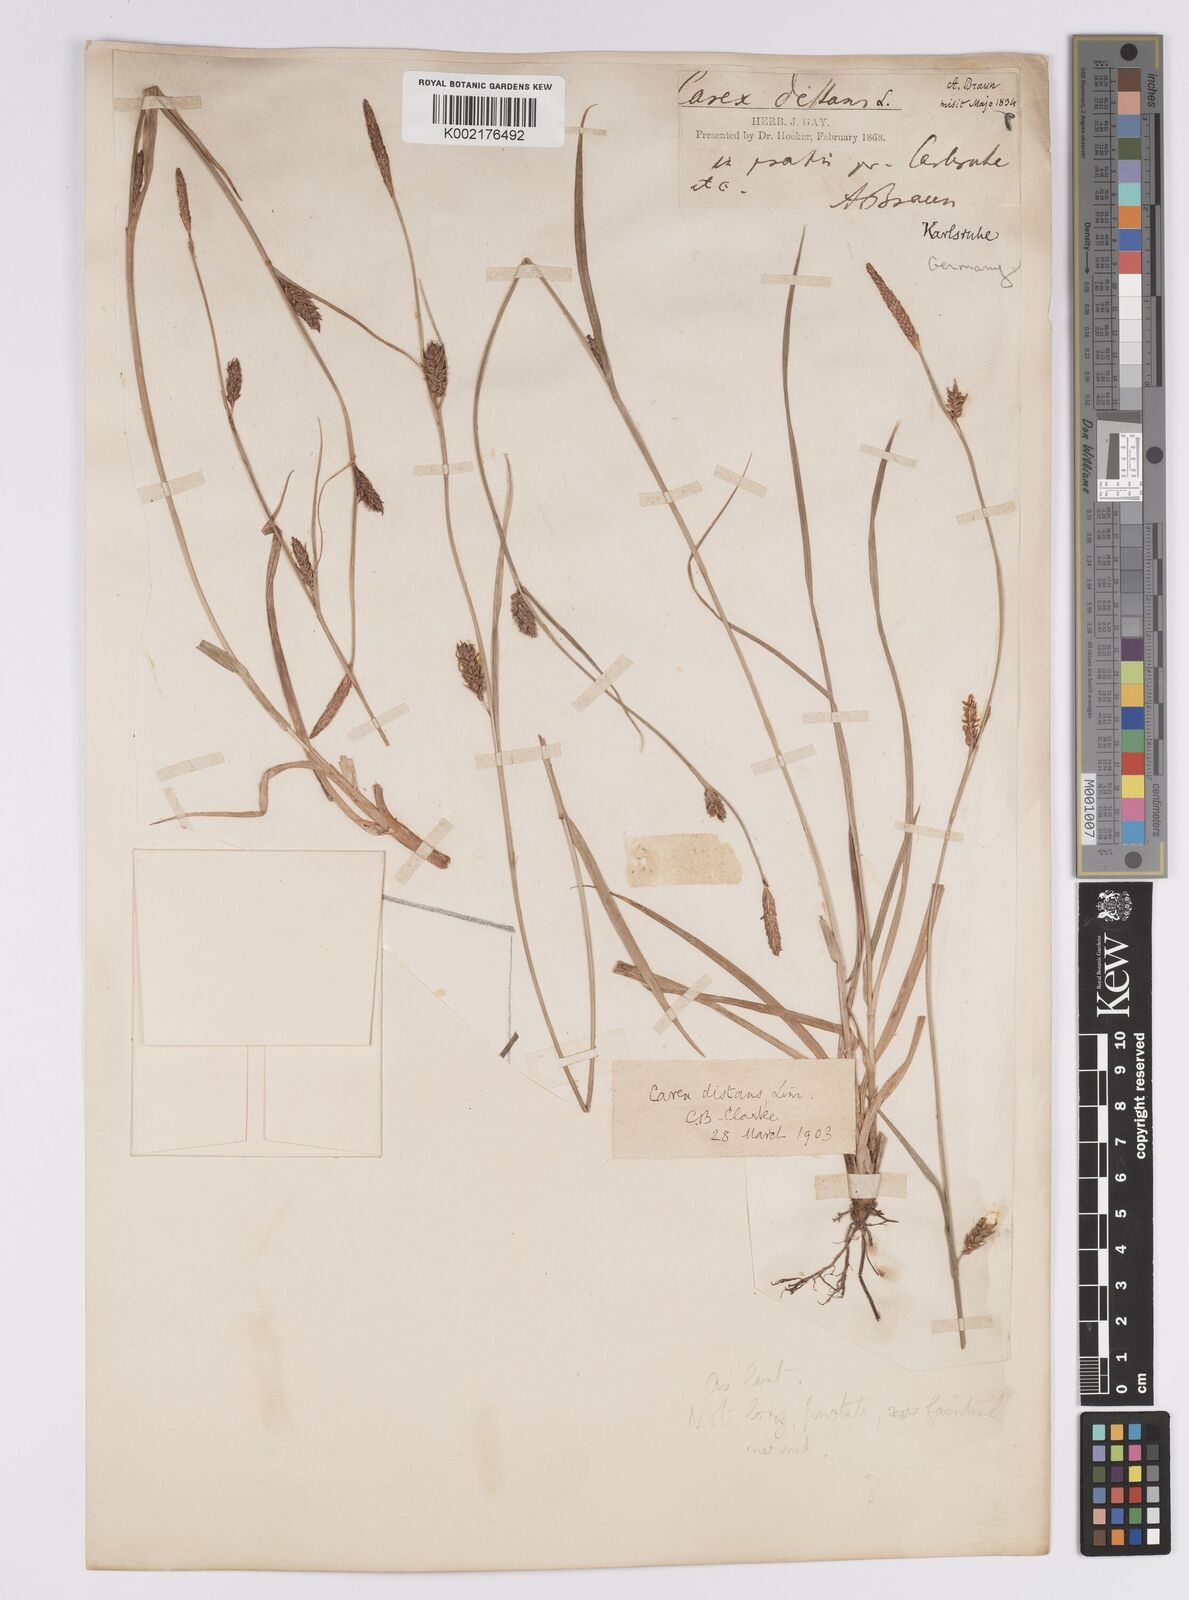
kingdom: Plantae
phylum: Tracheophyta
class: Liliopsida
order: Poales
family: Cyperaceae
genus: Carex
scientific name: Carex distans
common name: Distant sedge
